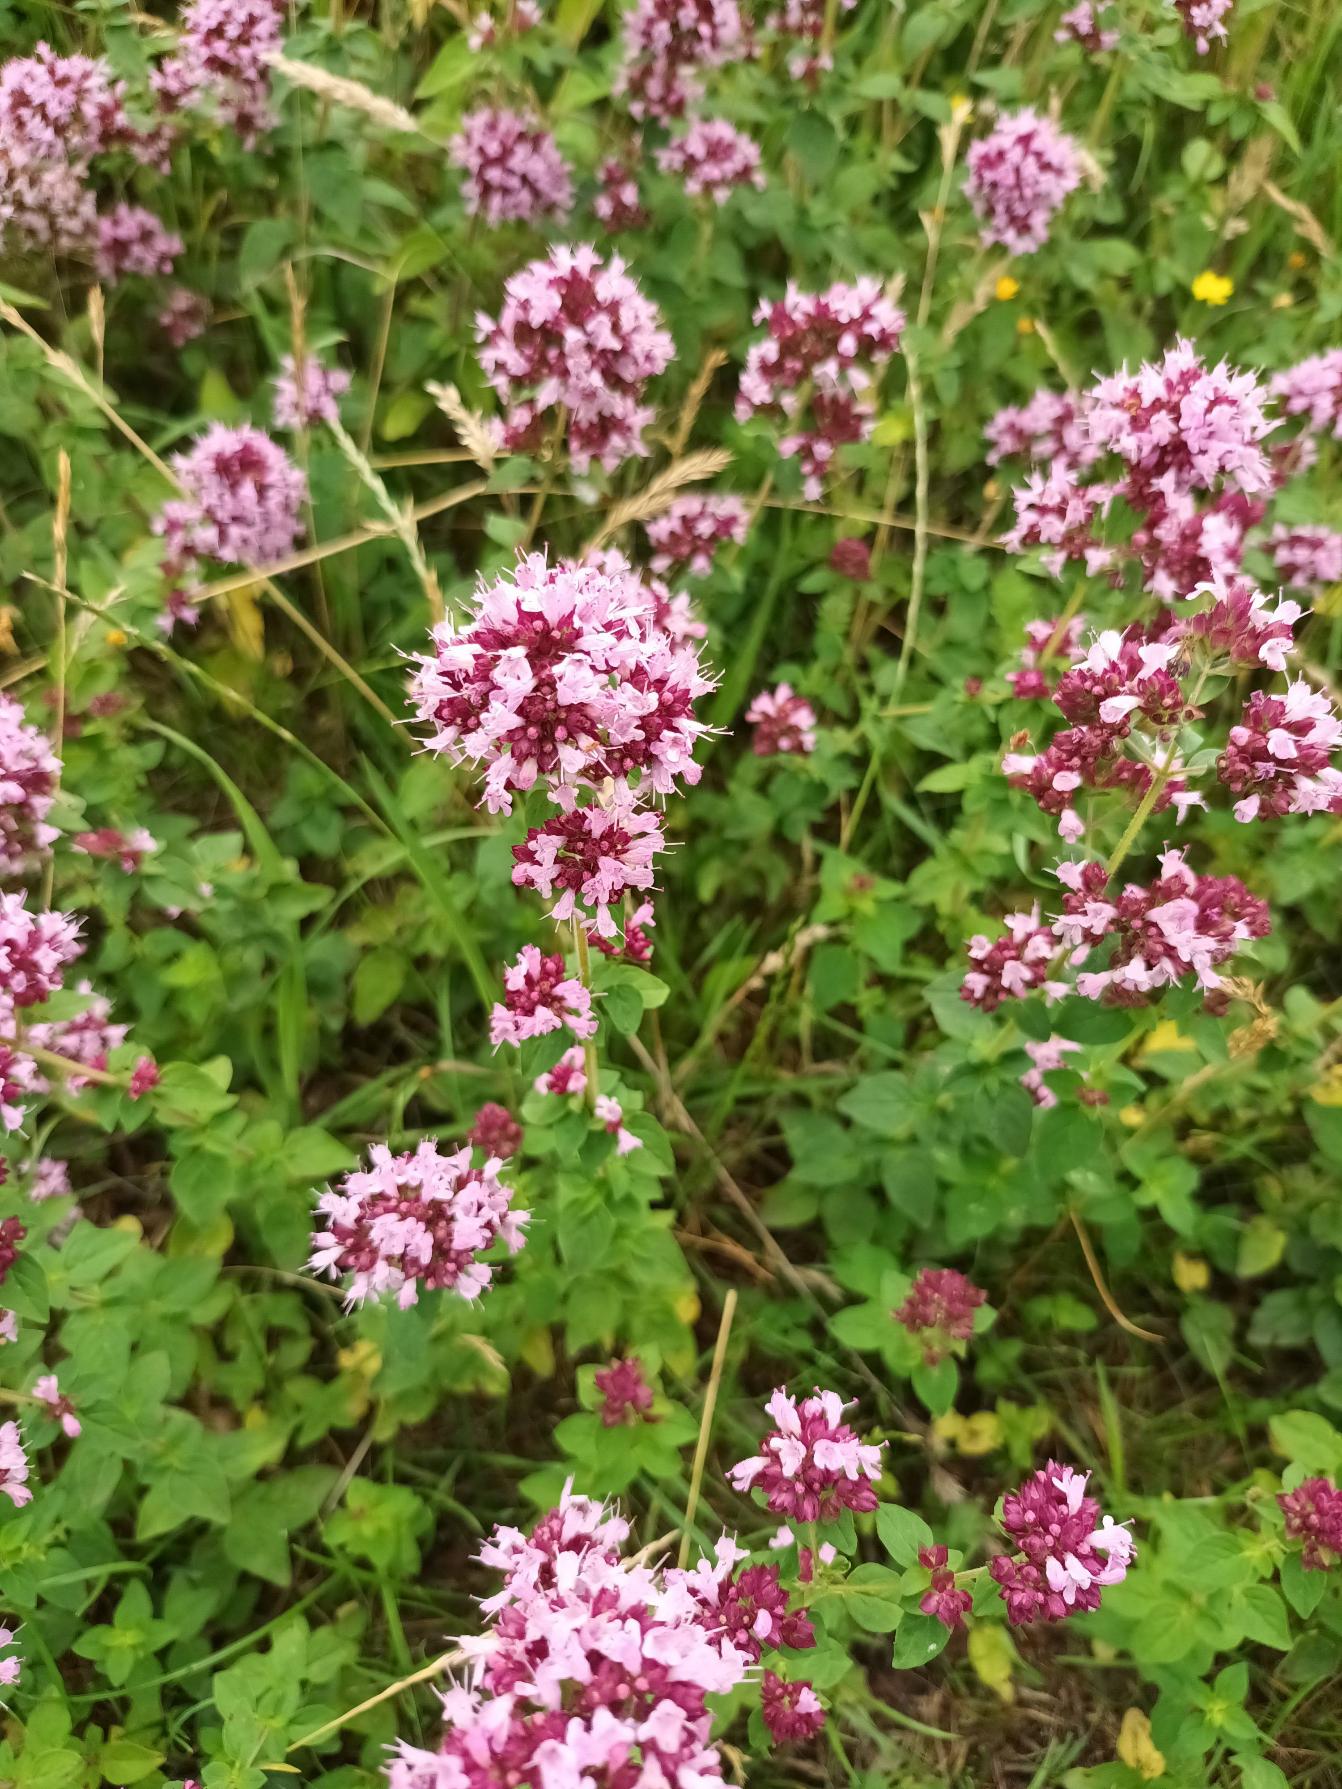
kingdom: Plantae
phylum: Tracheophyta
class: Magnoliopsida
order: Lamiales
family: Lamiaceae
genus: Origanum
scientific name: Origanum vulgare
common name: Merian
